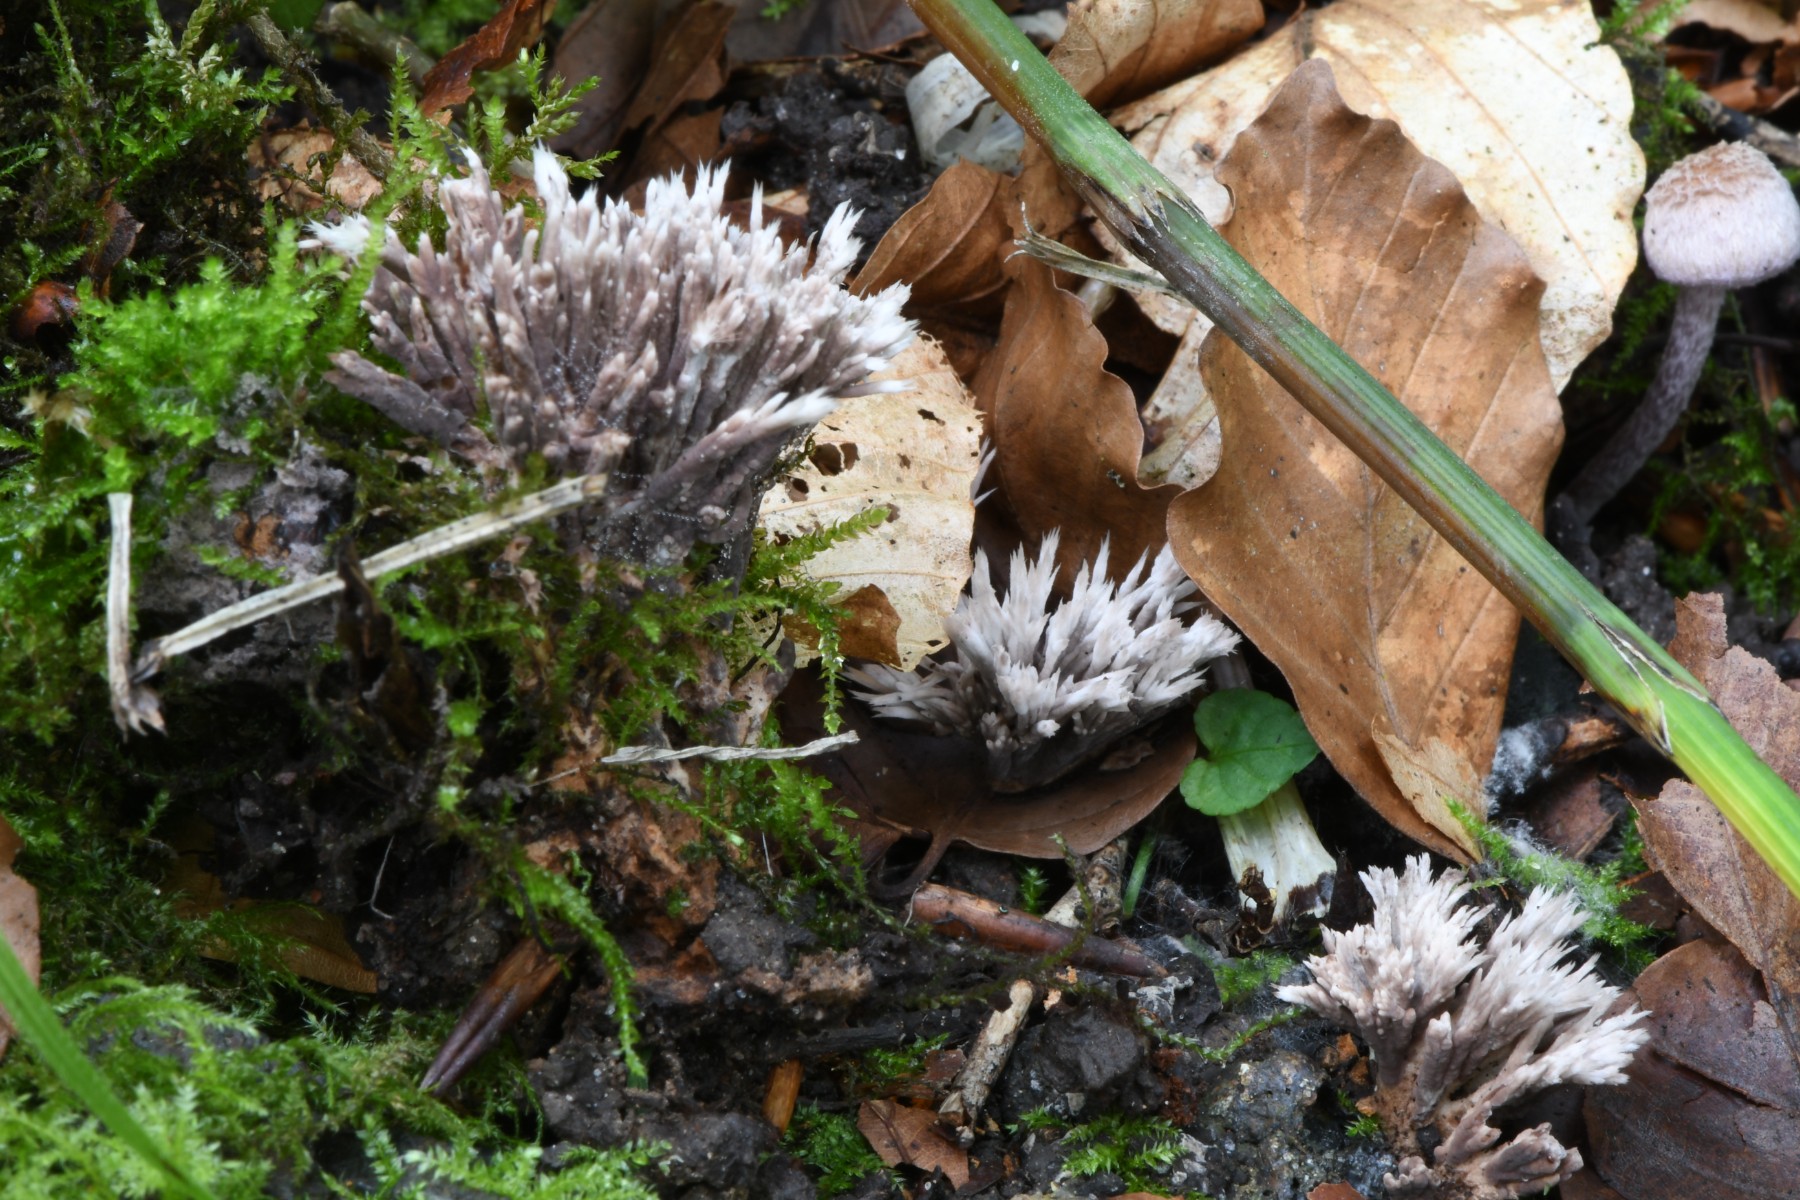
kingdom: Fungi
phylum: Basidiomycota
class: Agaricomycetes
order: Thelephorales
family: Thelephoraceae
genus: Thelephora
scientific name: Thelephora anthocephala
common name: busk-frynsesvamp
